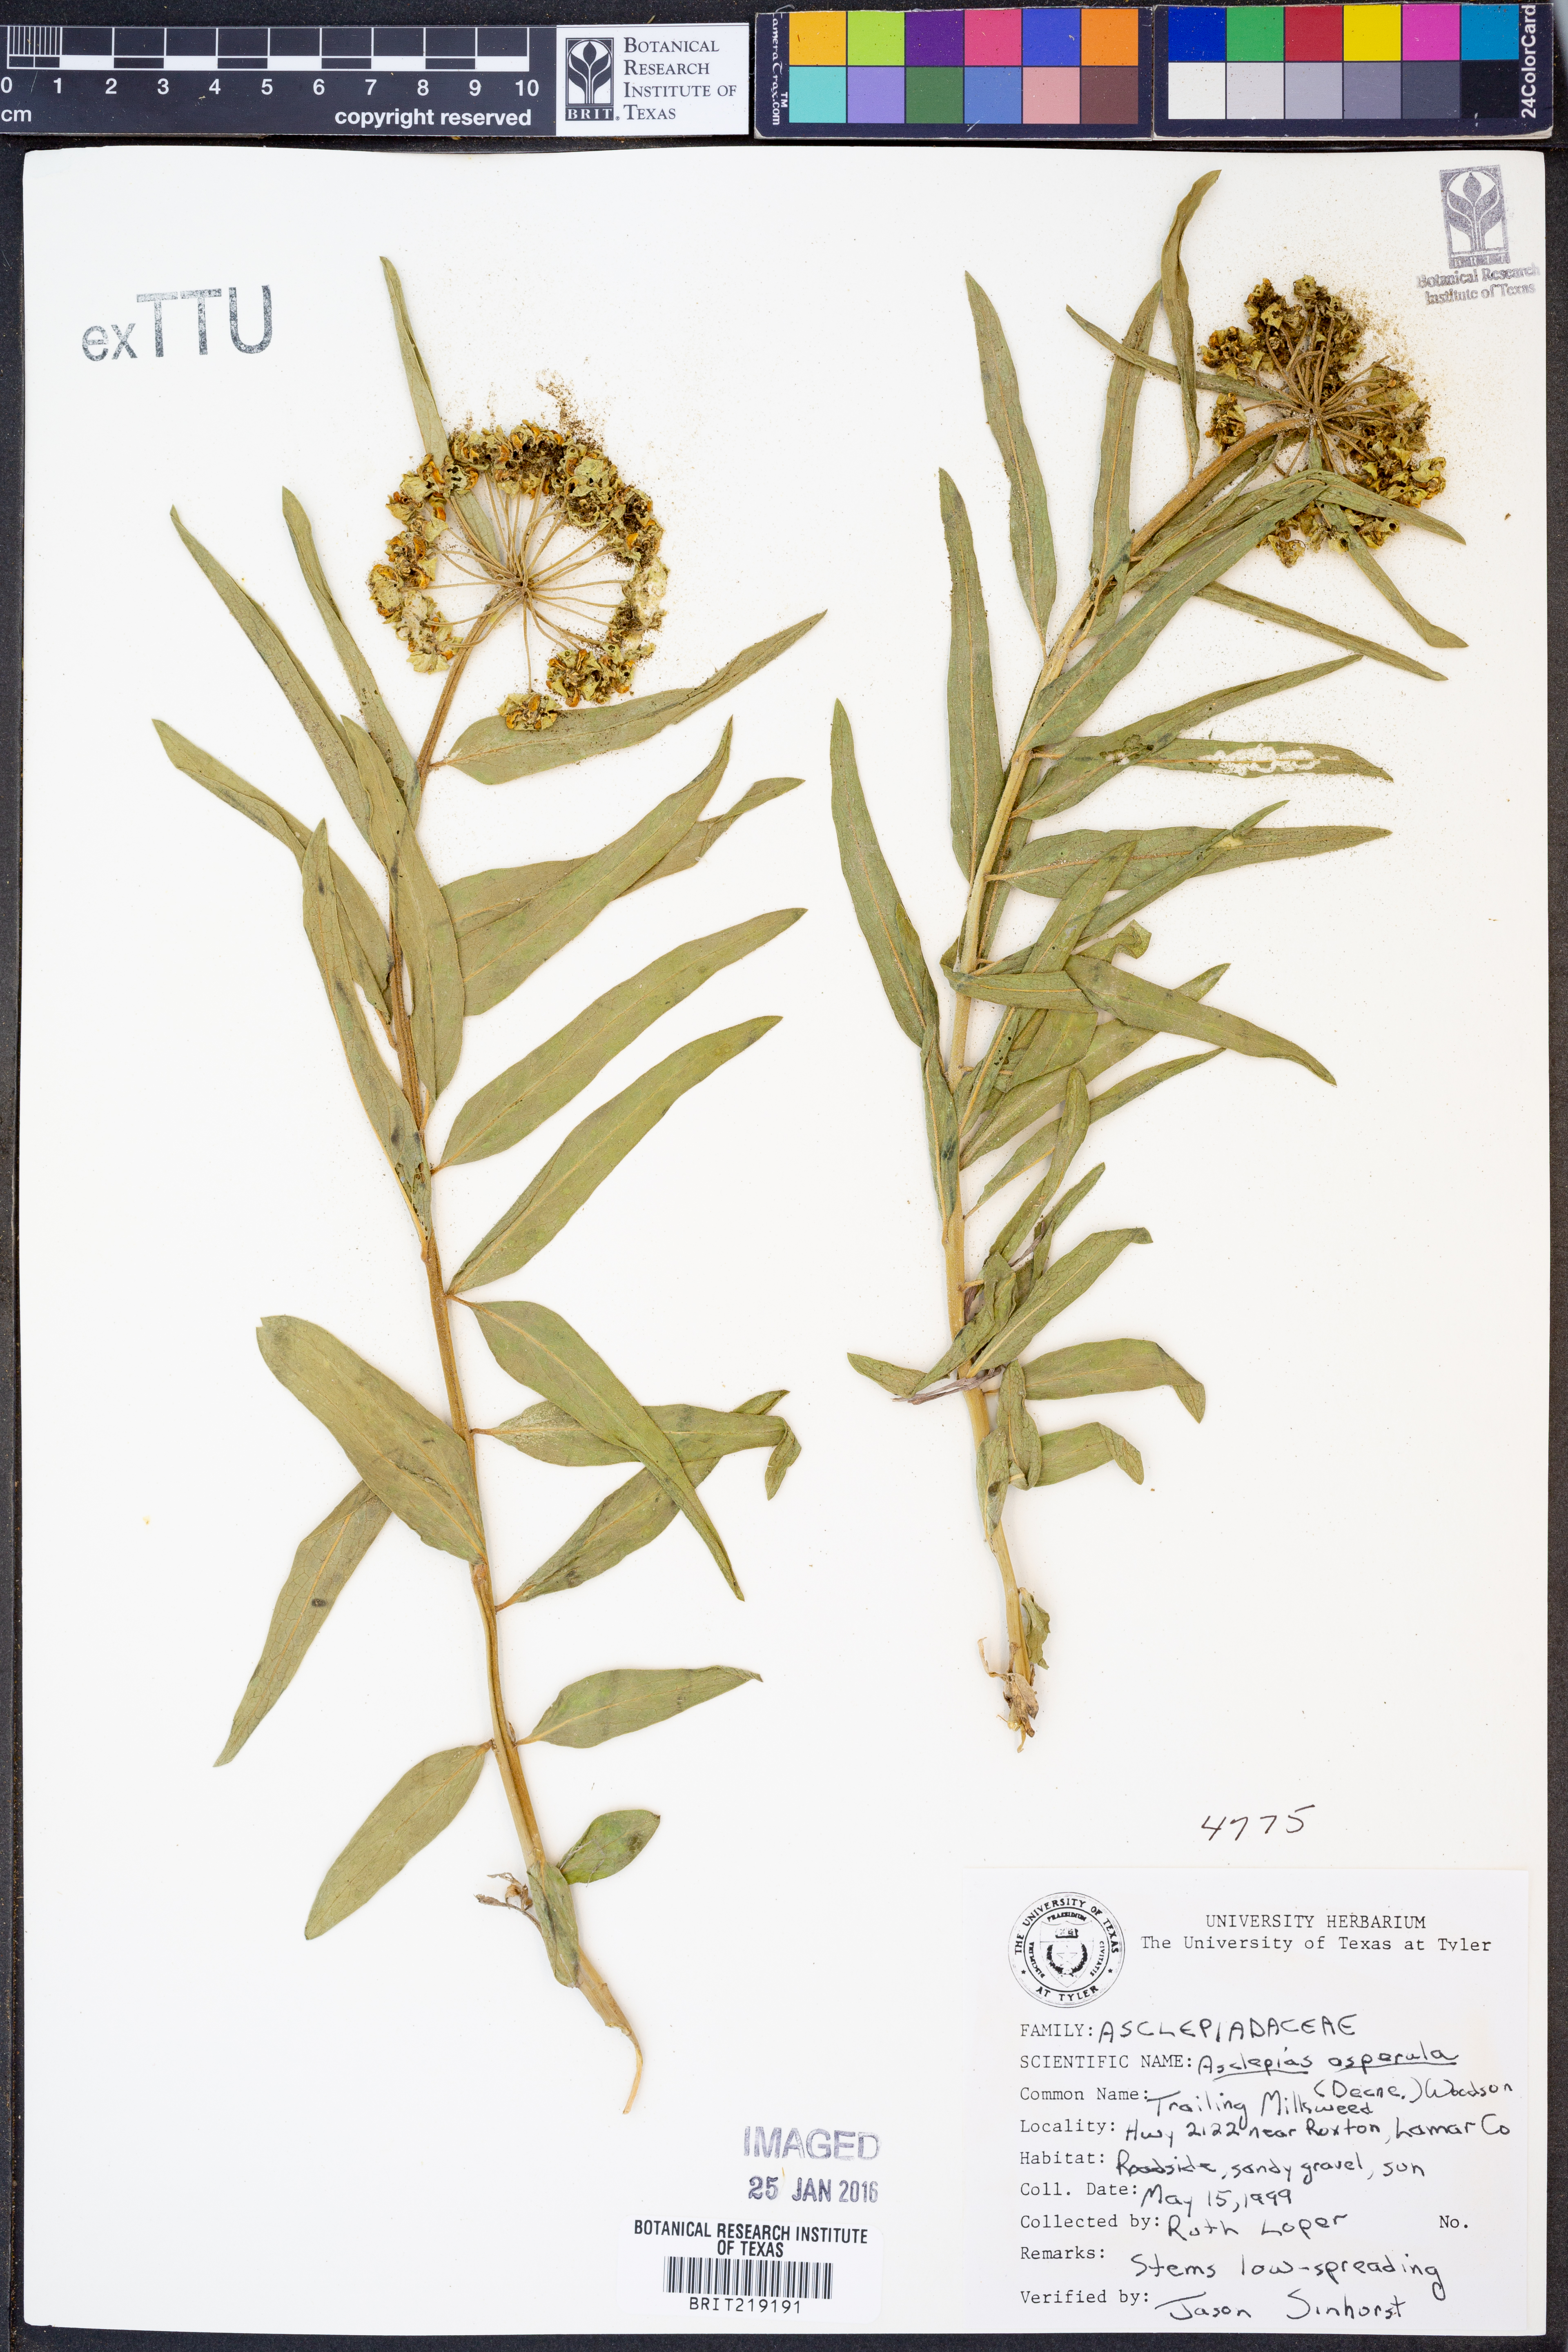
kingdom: Plantae
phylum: Tracheophyta
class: Magnoliopsida
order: Gentianales
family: Apocynaceae
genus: Asclepias
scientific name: Asclepias asperula
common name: Antelope horns
